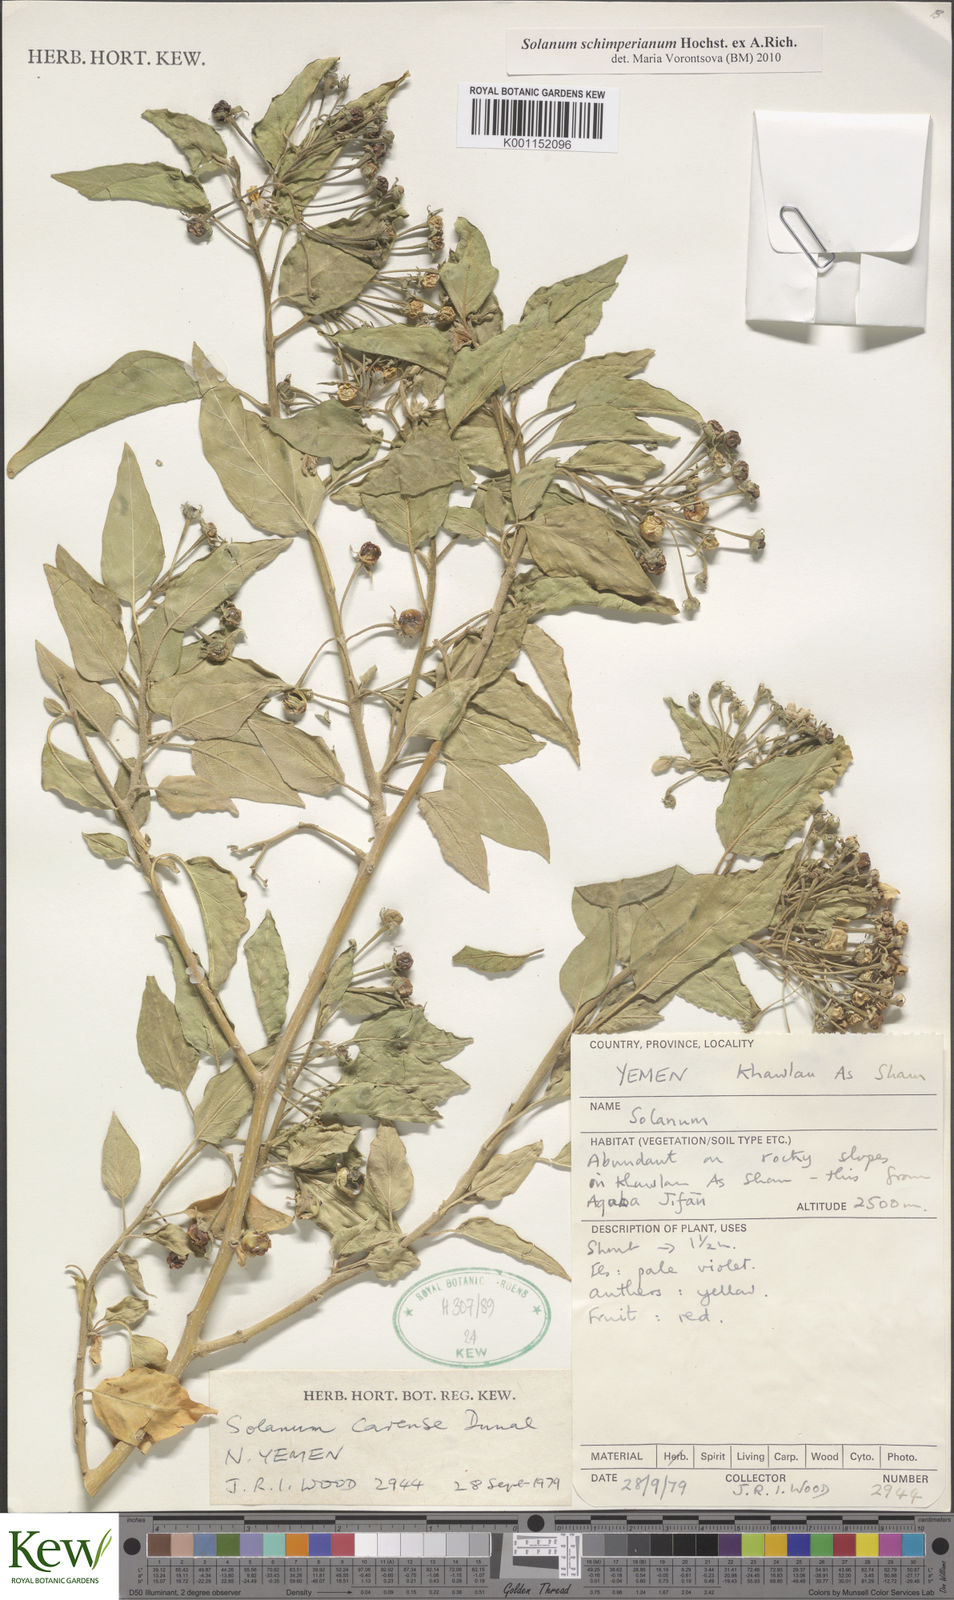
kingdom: Plantae
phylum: Tracheophyta
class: Magnoliopsida
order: Solanales
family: Solanaceae
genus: Solanum
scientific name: Solanum schimperianum
